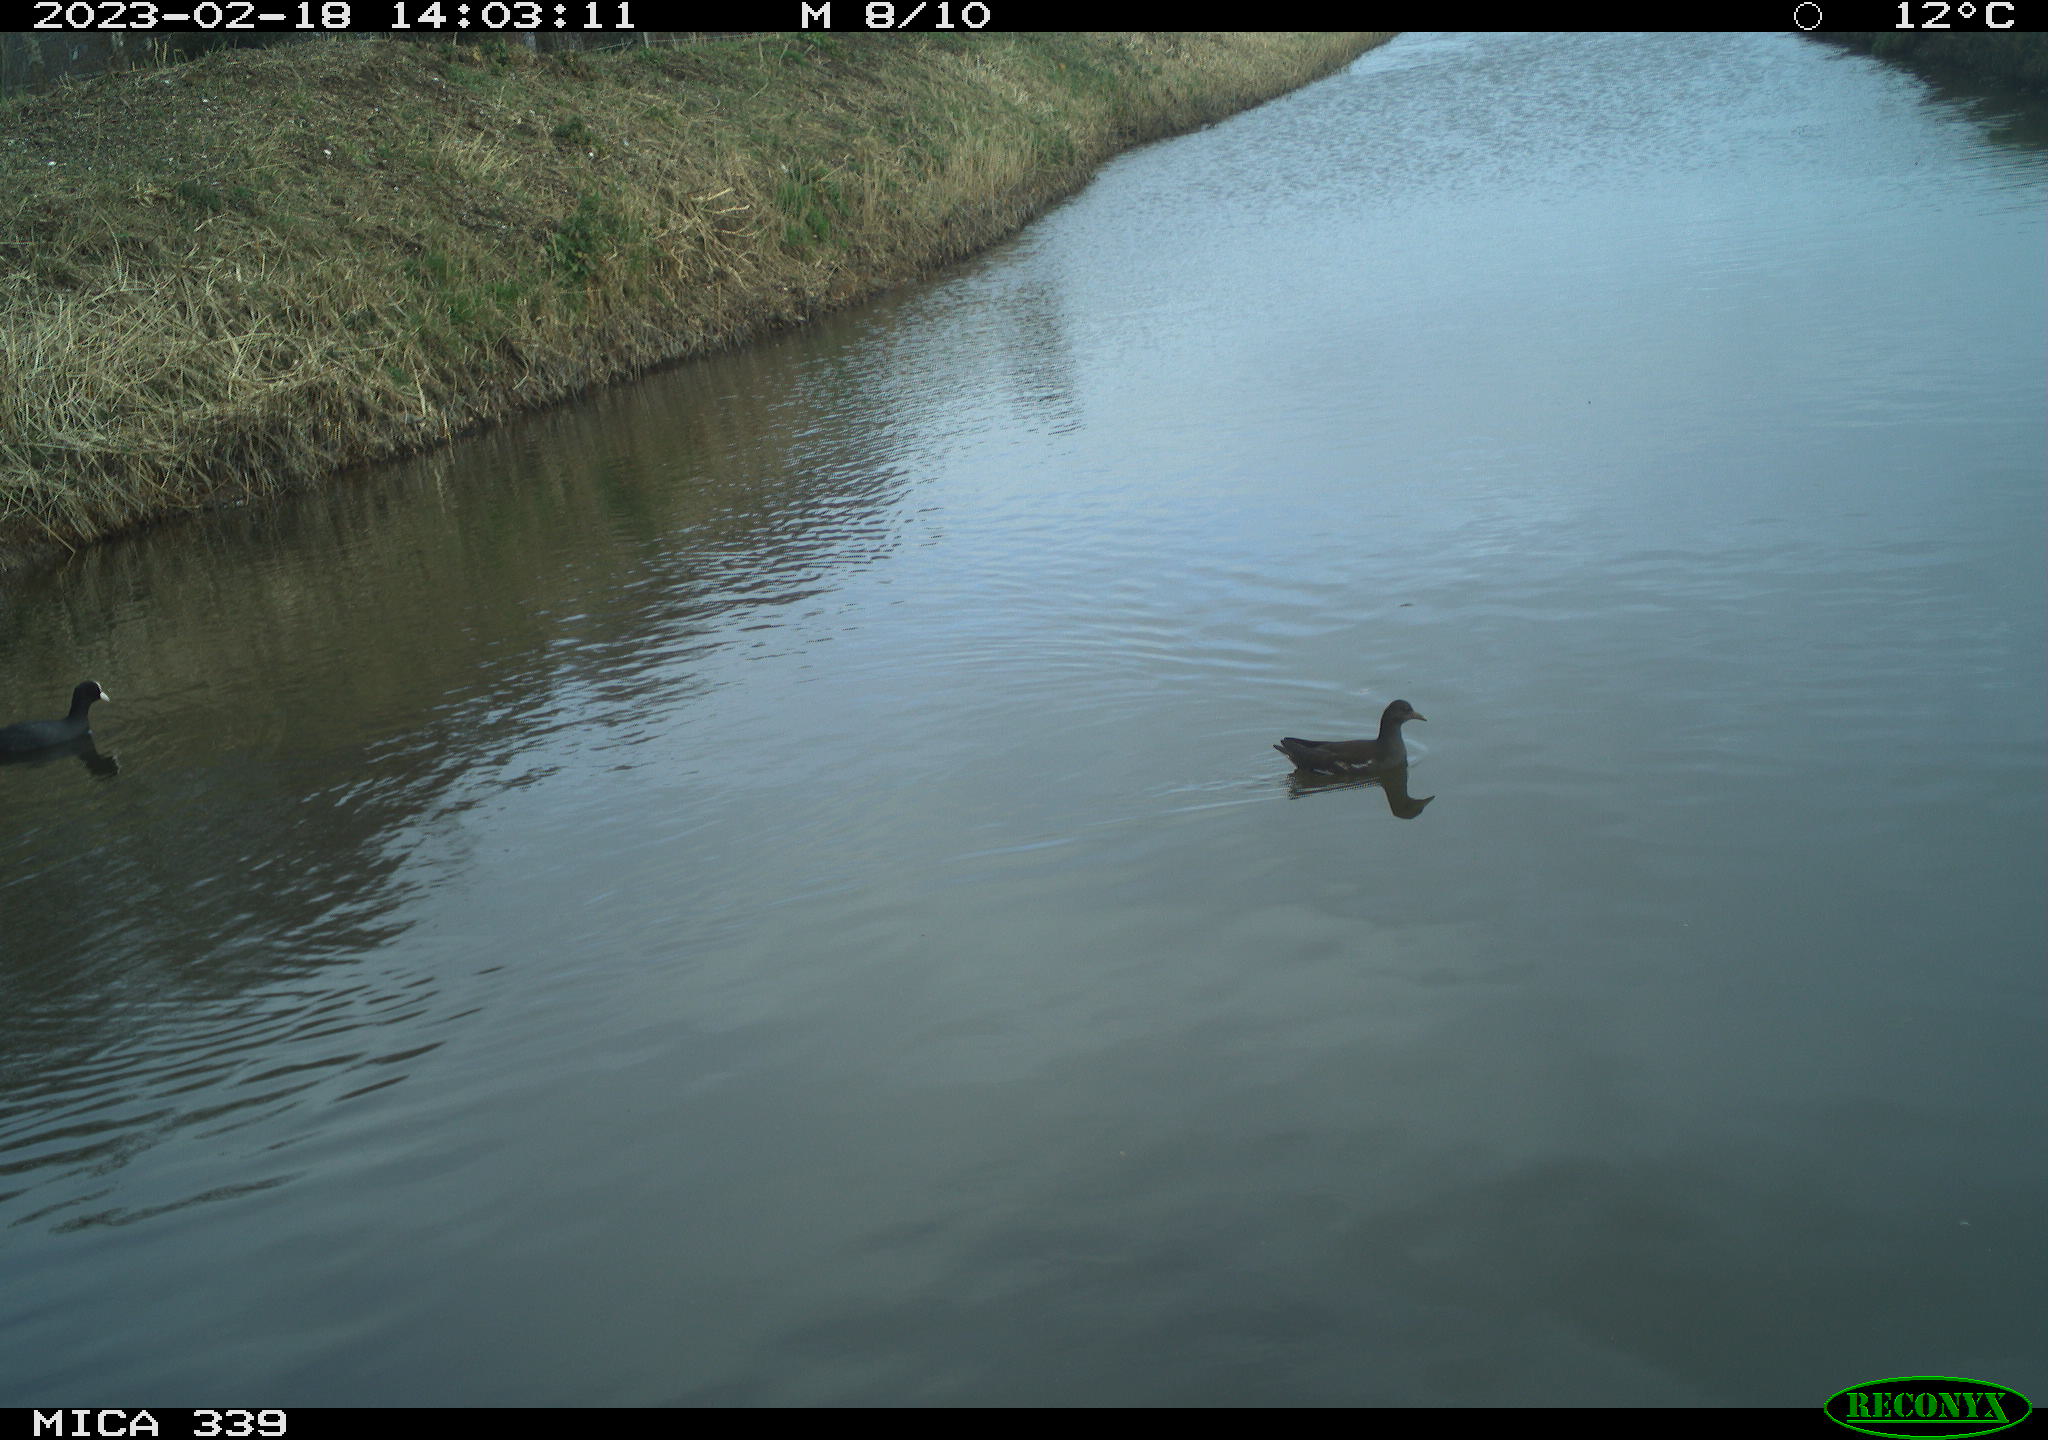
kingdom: Animalia
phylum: Chordata
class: Aves
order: Gruiformes
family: Rallidae
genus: Fulica
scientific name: Fulica atra
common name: Eurasian coot
